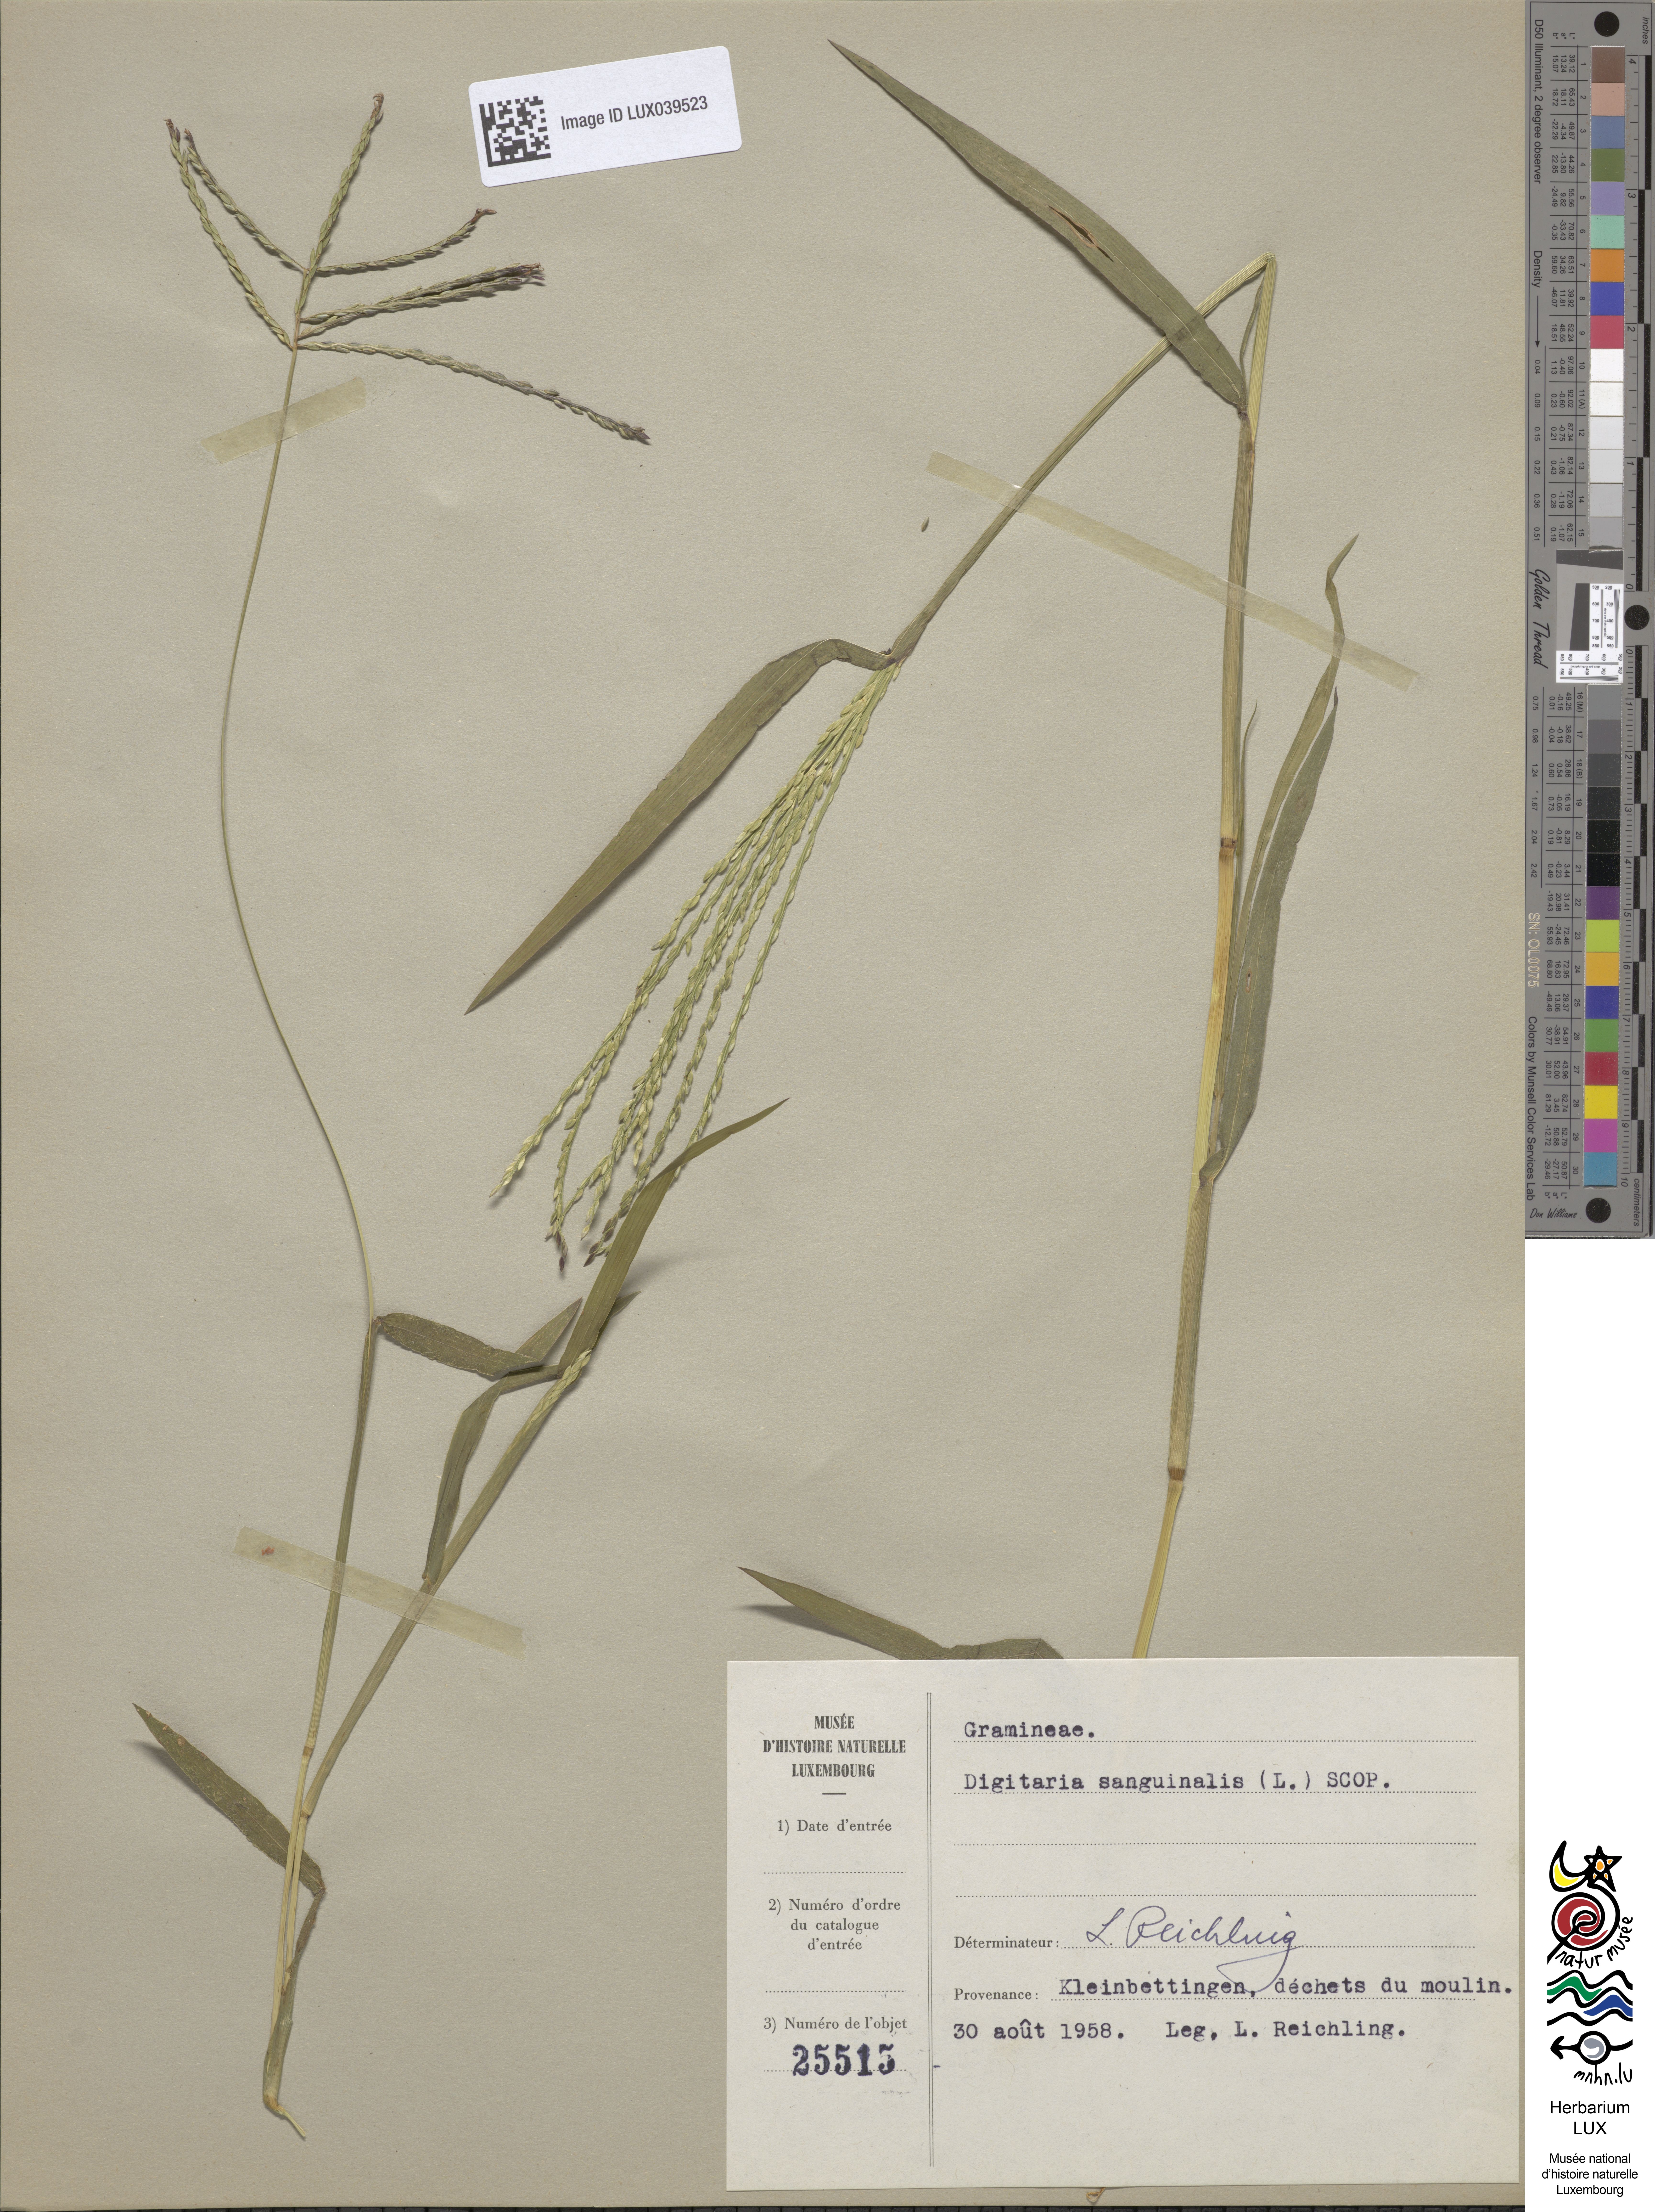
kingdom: Plantae
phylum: Tracheophyta
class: Magnoliopsida
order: Asterales
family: Asteraceae
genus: Bellis
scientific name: Bellis sylvestris
